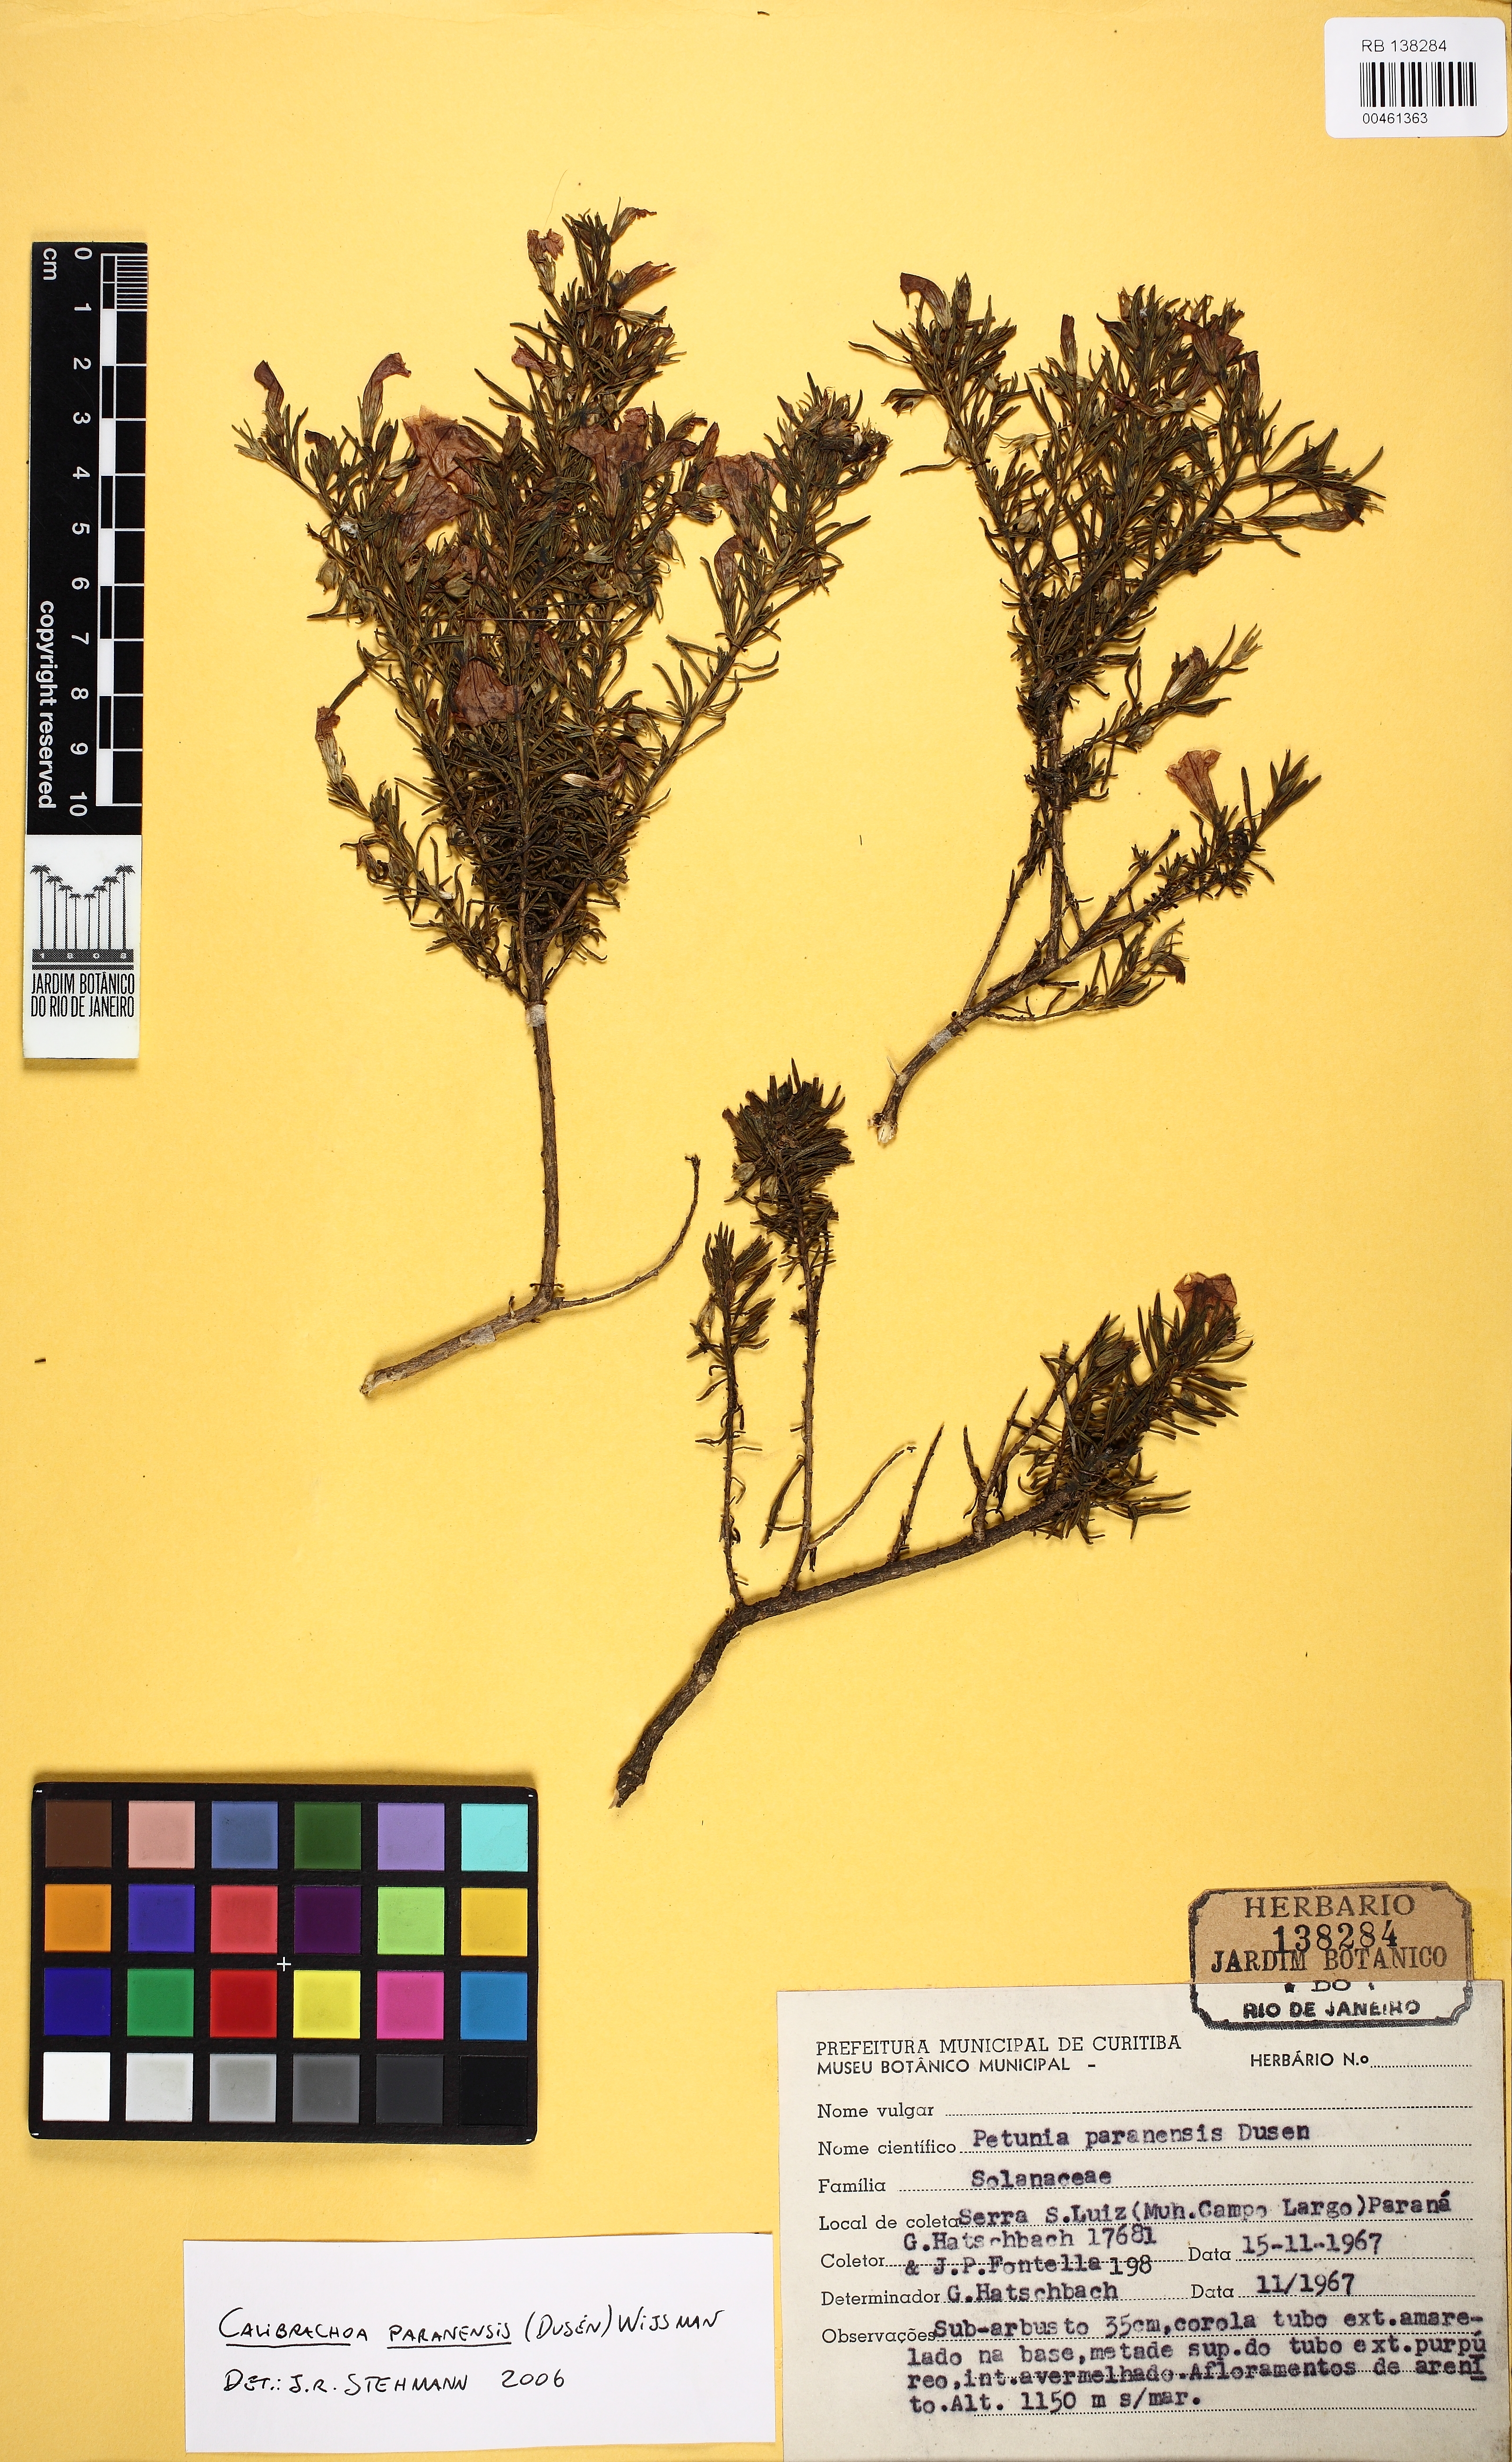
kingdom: Plantae
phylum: Tracheophyta
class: Magnoliopsida
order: Solanales
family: Solanaceae
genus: Calibrachoa
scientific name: Calibrachoa paranensis
